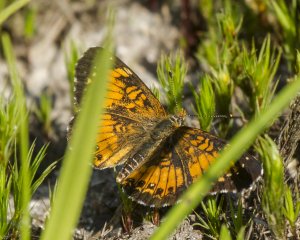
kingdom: Animalia
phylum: Arthropoda
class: Insecta
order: Lepidoptera
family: Nymphalidae
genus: Chlosyne
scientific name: Chlosyne harrisii
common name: Harris's Checkerspot
